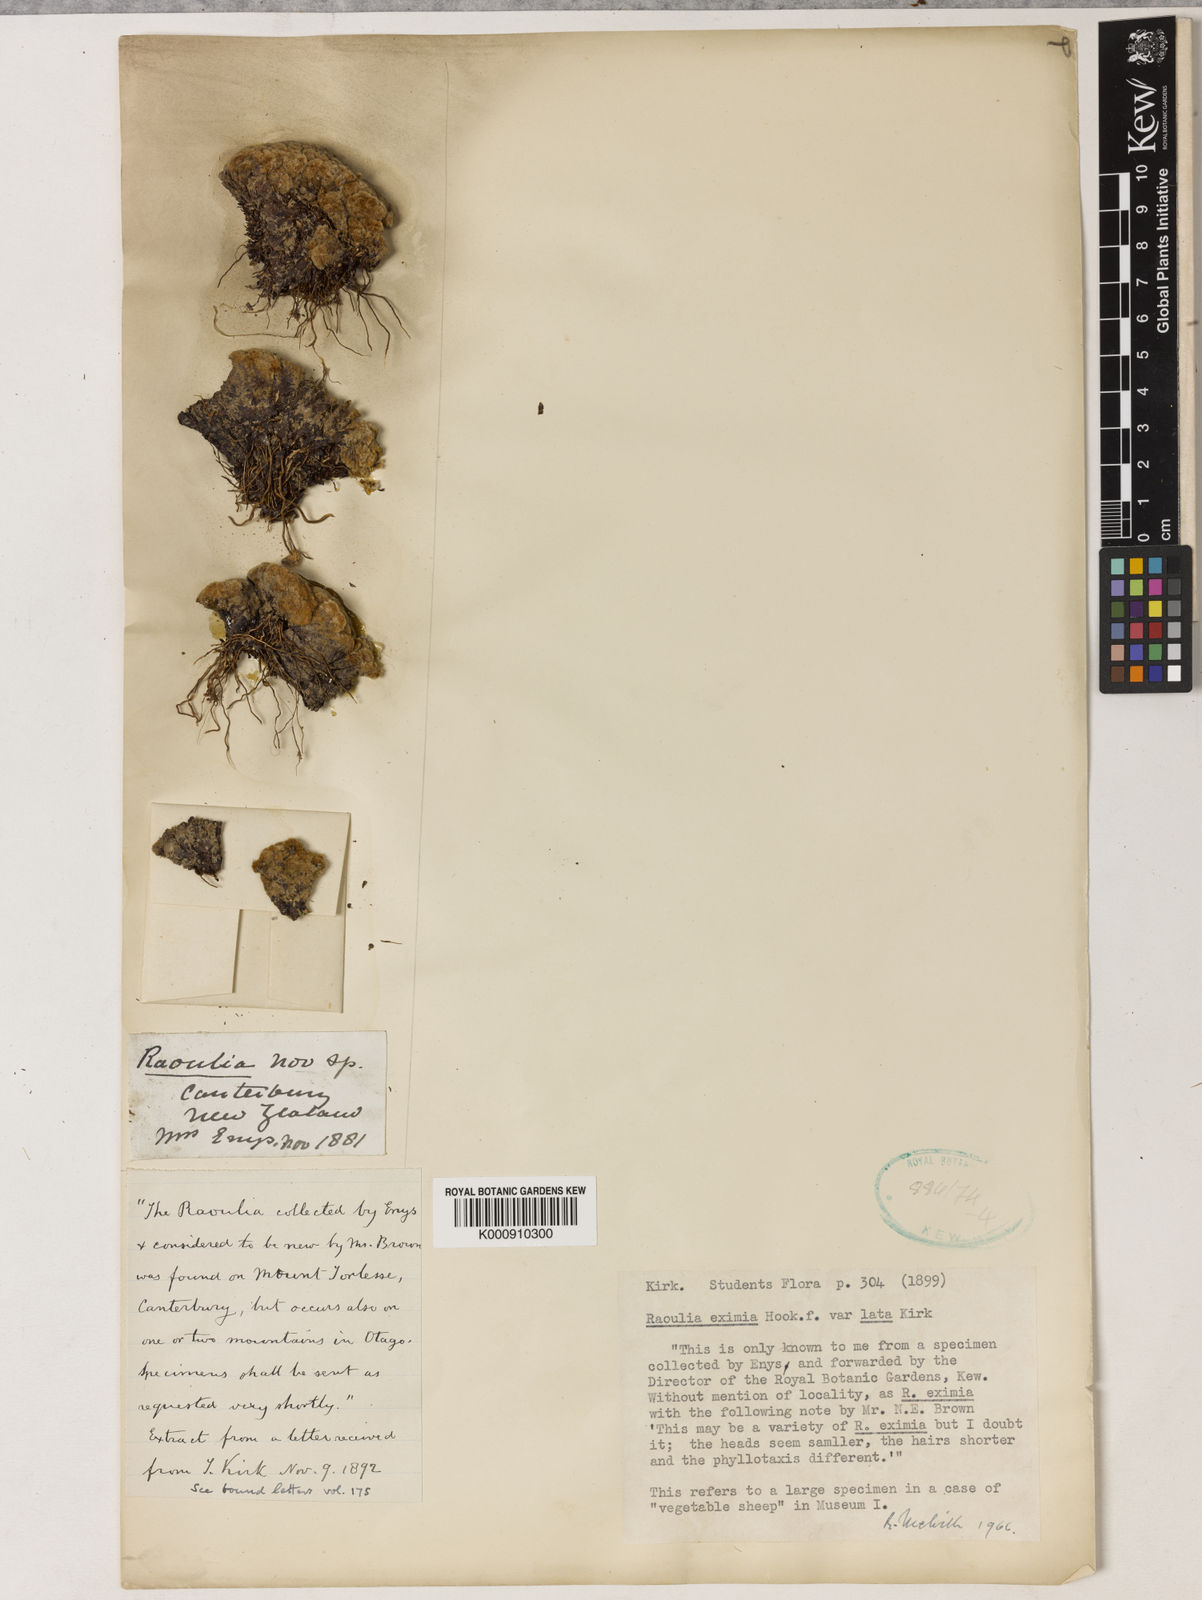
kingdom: Plantae
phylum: Tracheophyta
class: Magnoliopsida
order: Asterales
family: Asteraceae
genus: Raoulia
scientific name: Raoulia eximia
